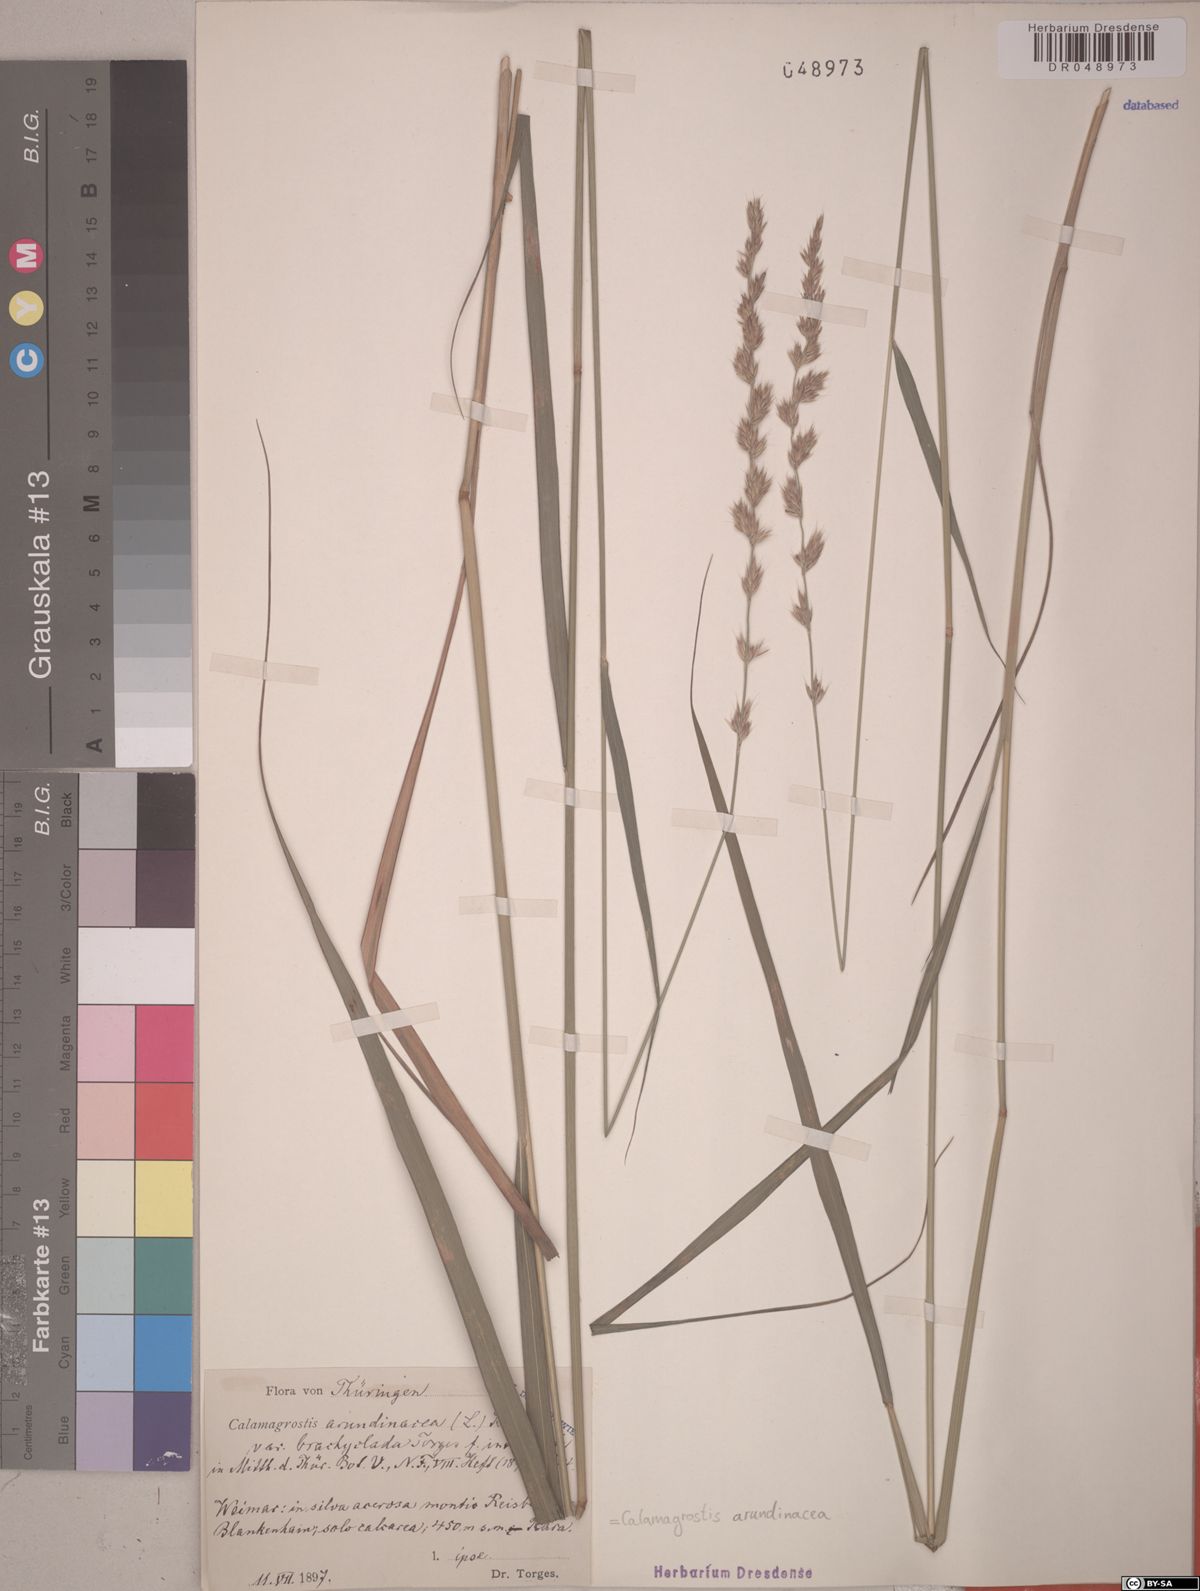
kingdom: Plantae
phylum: Tracheophyta
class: Liliopsida
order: Poales
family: Poaceae
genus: Calamagrostis
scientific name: Calamagrostis arundinacea
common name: Metskastik
